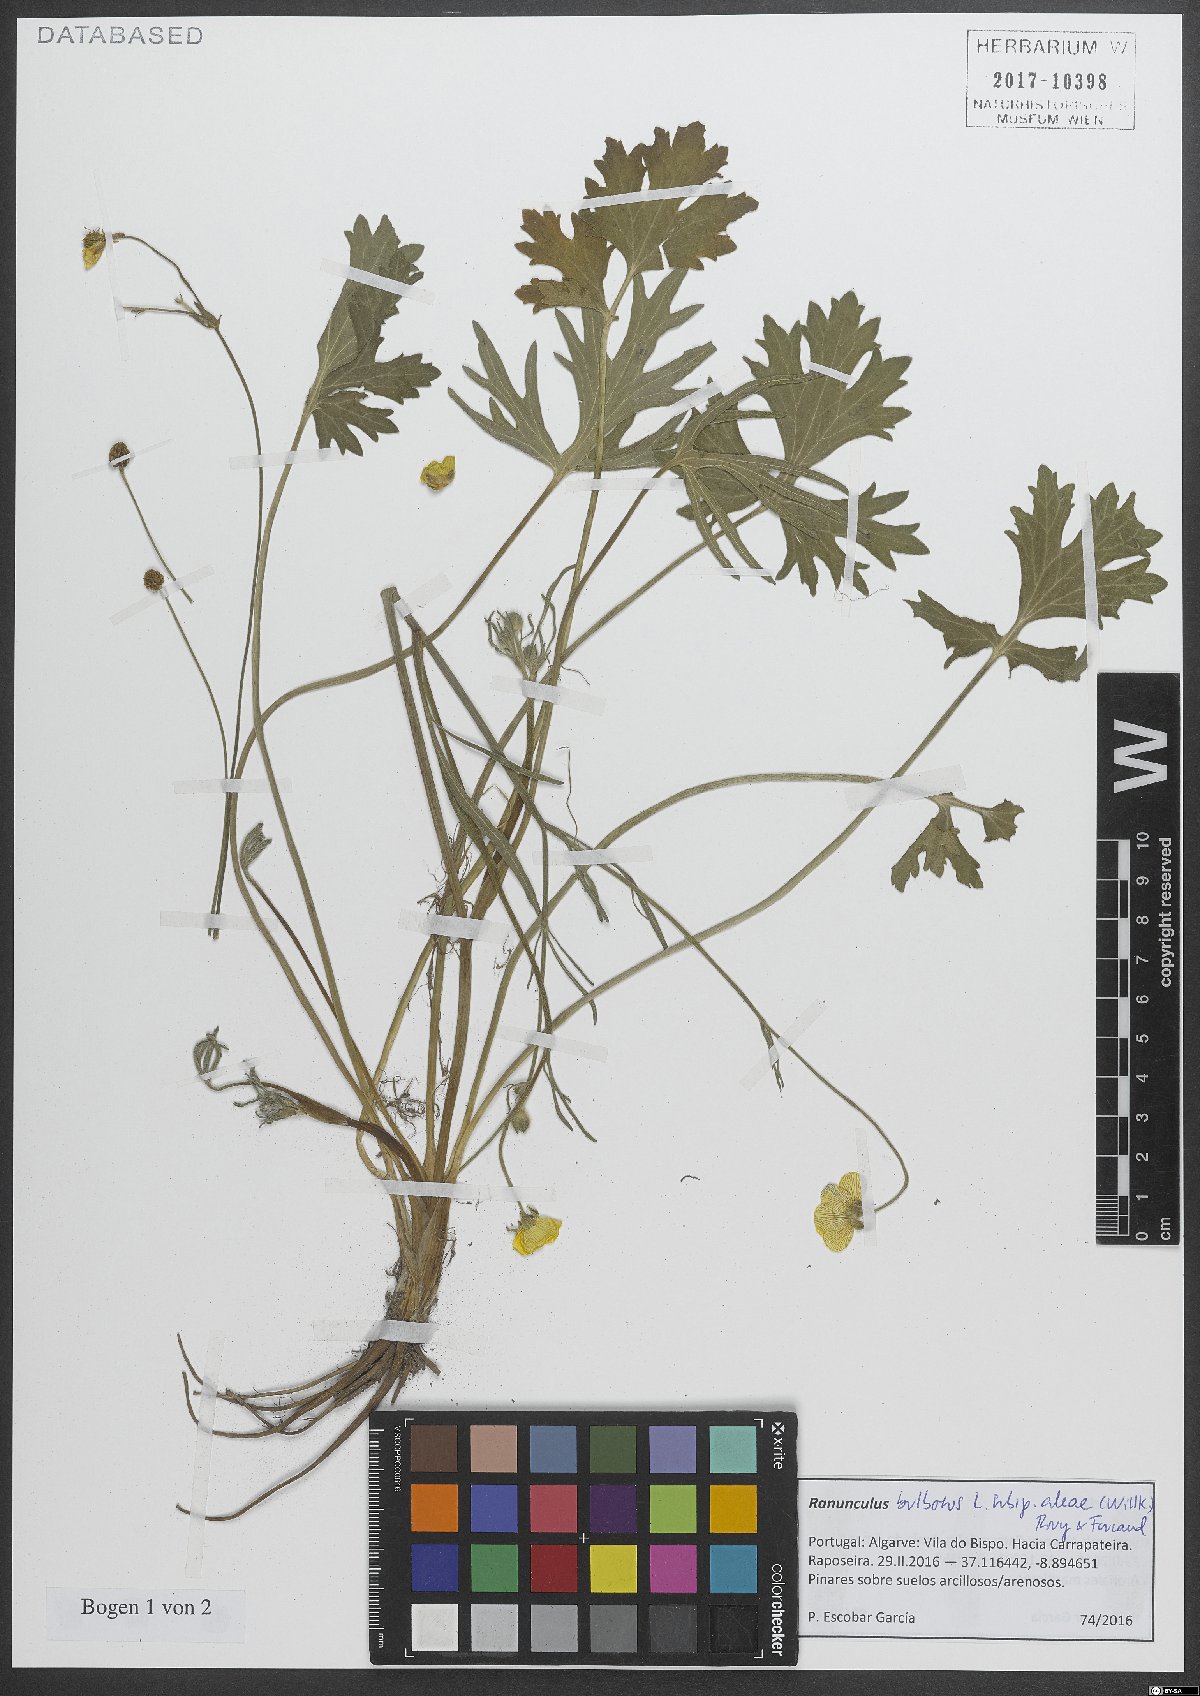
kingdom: Plantae
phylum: Tracheophyta
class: Magnoliopsida
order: Ranunculales
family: Ranunculaceae
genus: Ranunculus
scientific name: Ranunculus neapolitanus
